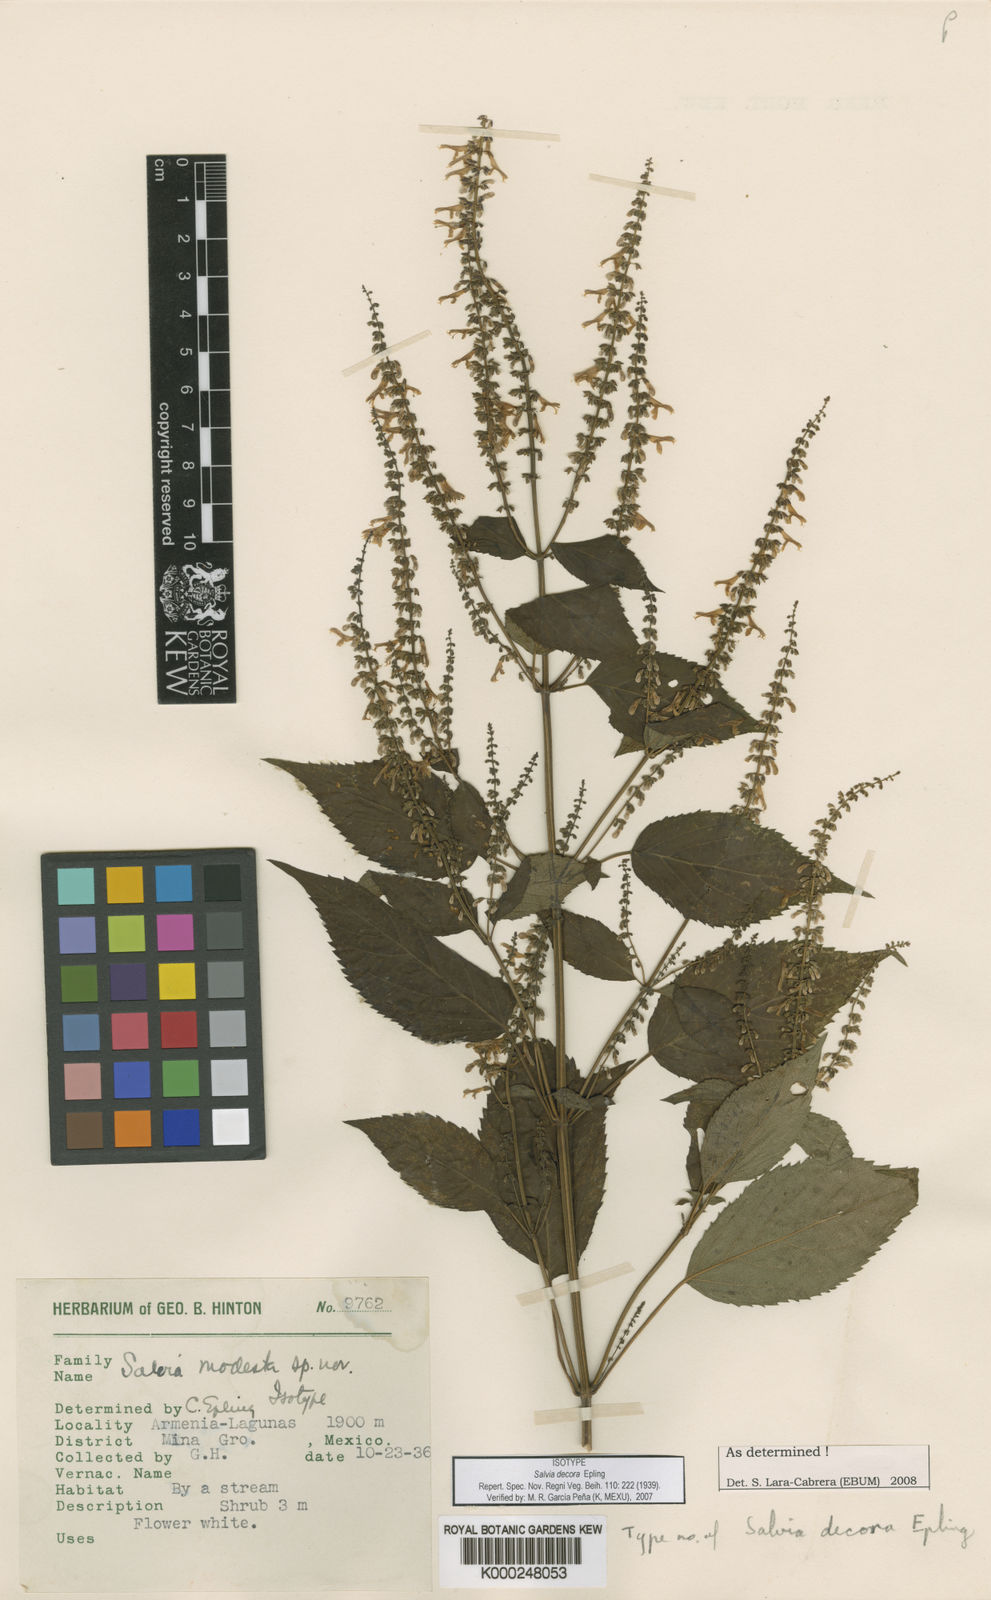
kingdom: Plantae
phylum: Tracheophyta
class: Magnoliopsida
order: Lamiales
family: Lamiaceae
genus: Salvia
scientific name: Salvia decora
